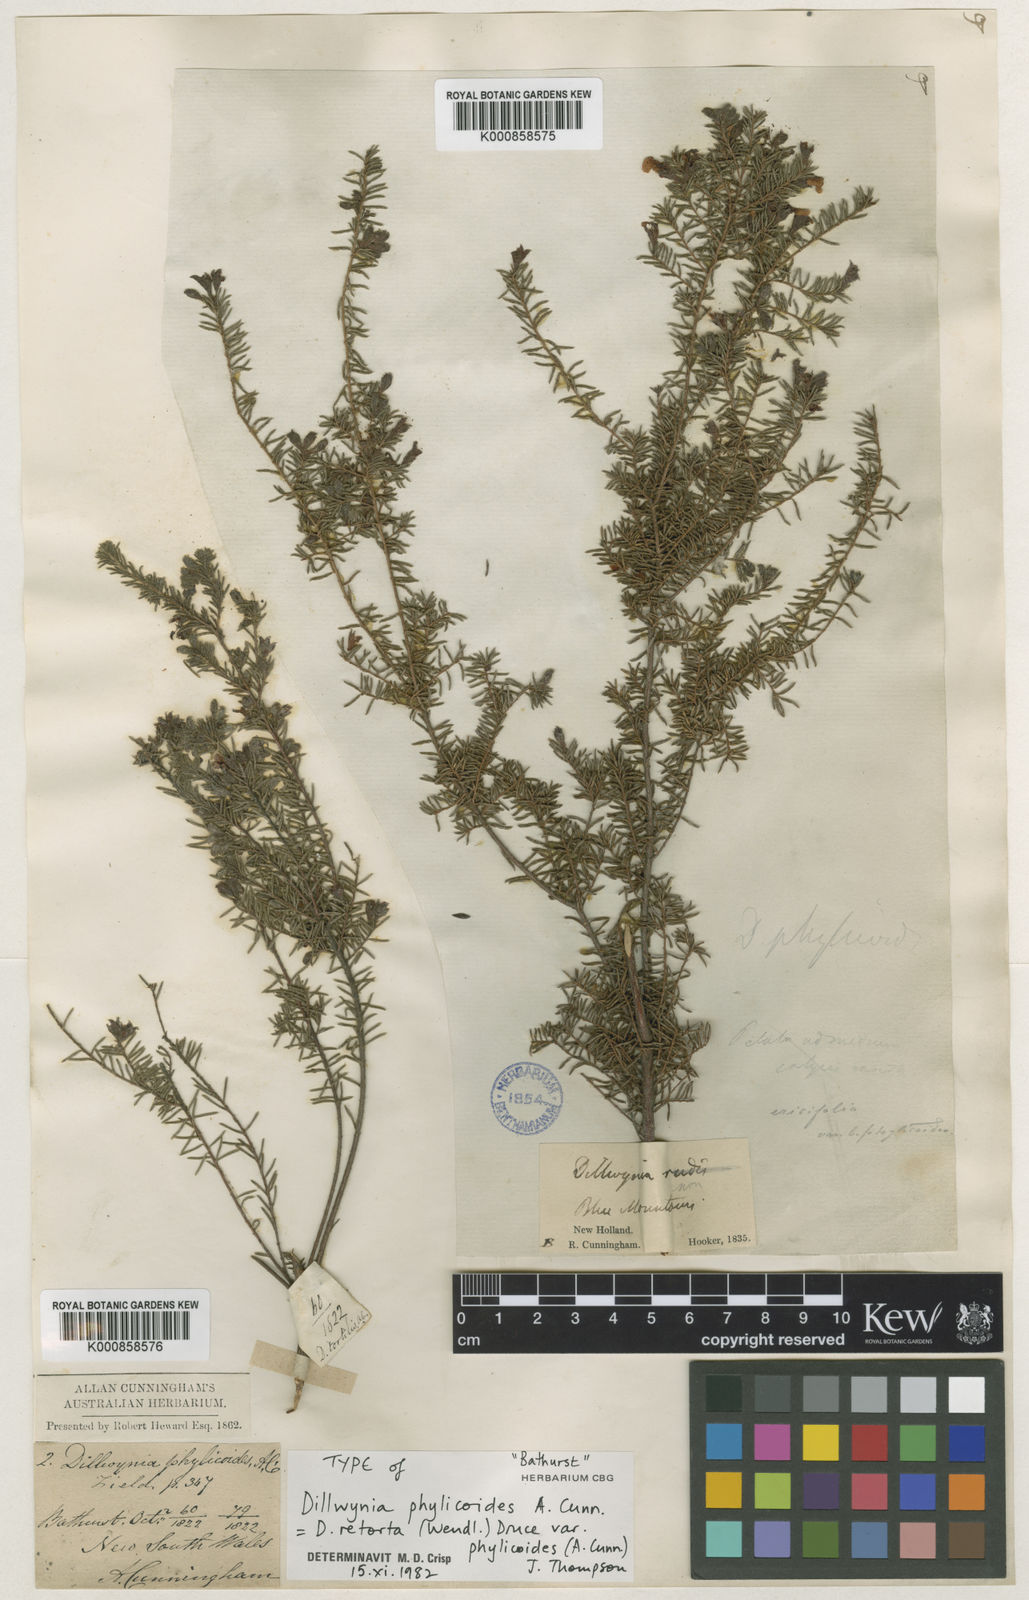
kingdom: Plantae
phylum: Tracheophyta
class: Magnoliopsida
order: Fabales
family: Fabaceae
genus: Dillwynia
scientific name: Dillwynia phylicoides
